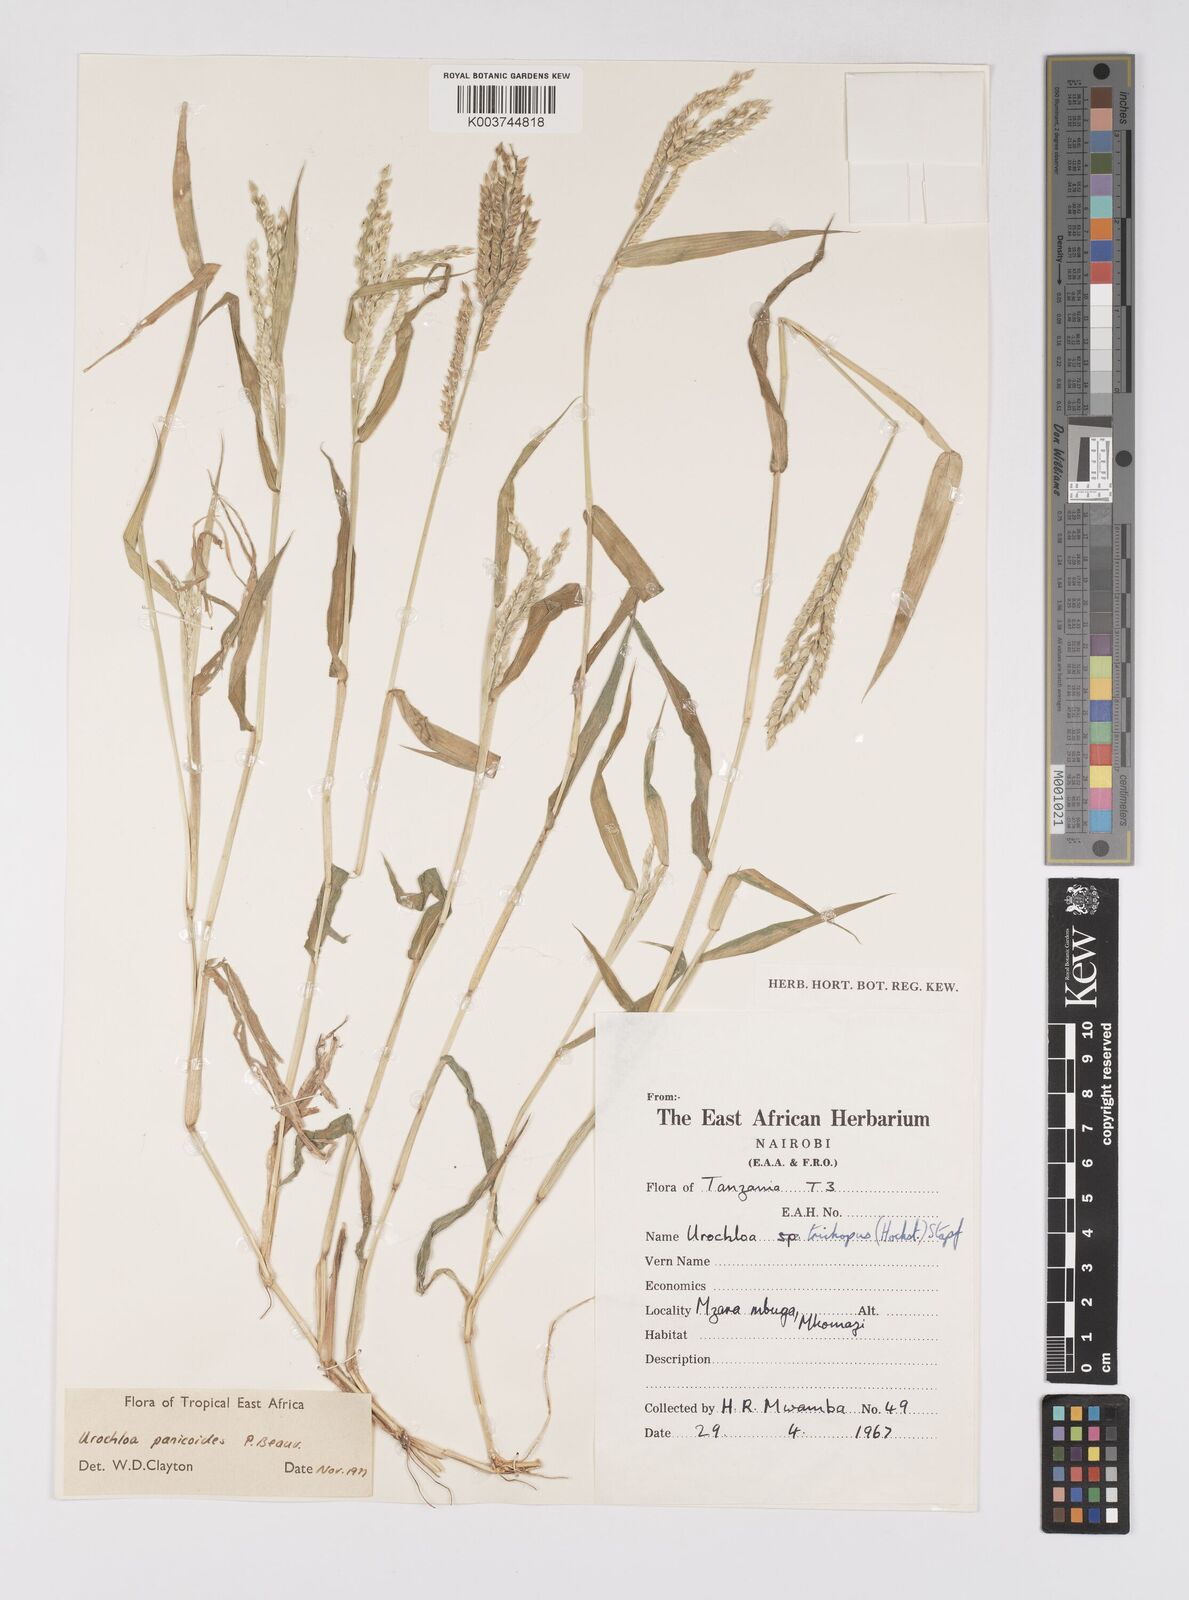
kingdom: Plantae
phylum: Tracheophyta
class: Liliopsida
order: Poales
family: Poaceae
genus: Urochloa
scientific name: Urochloa panicoides
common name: Sharp-flowered signal-grass
